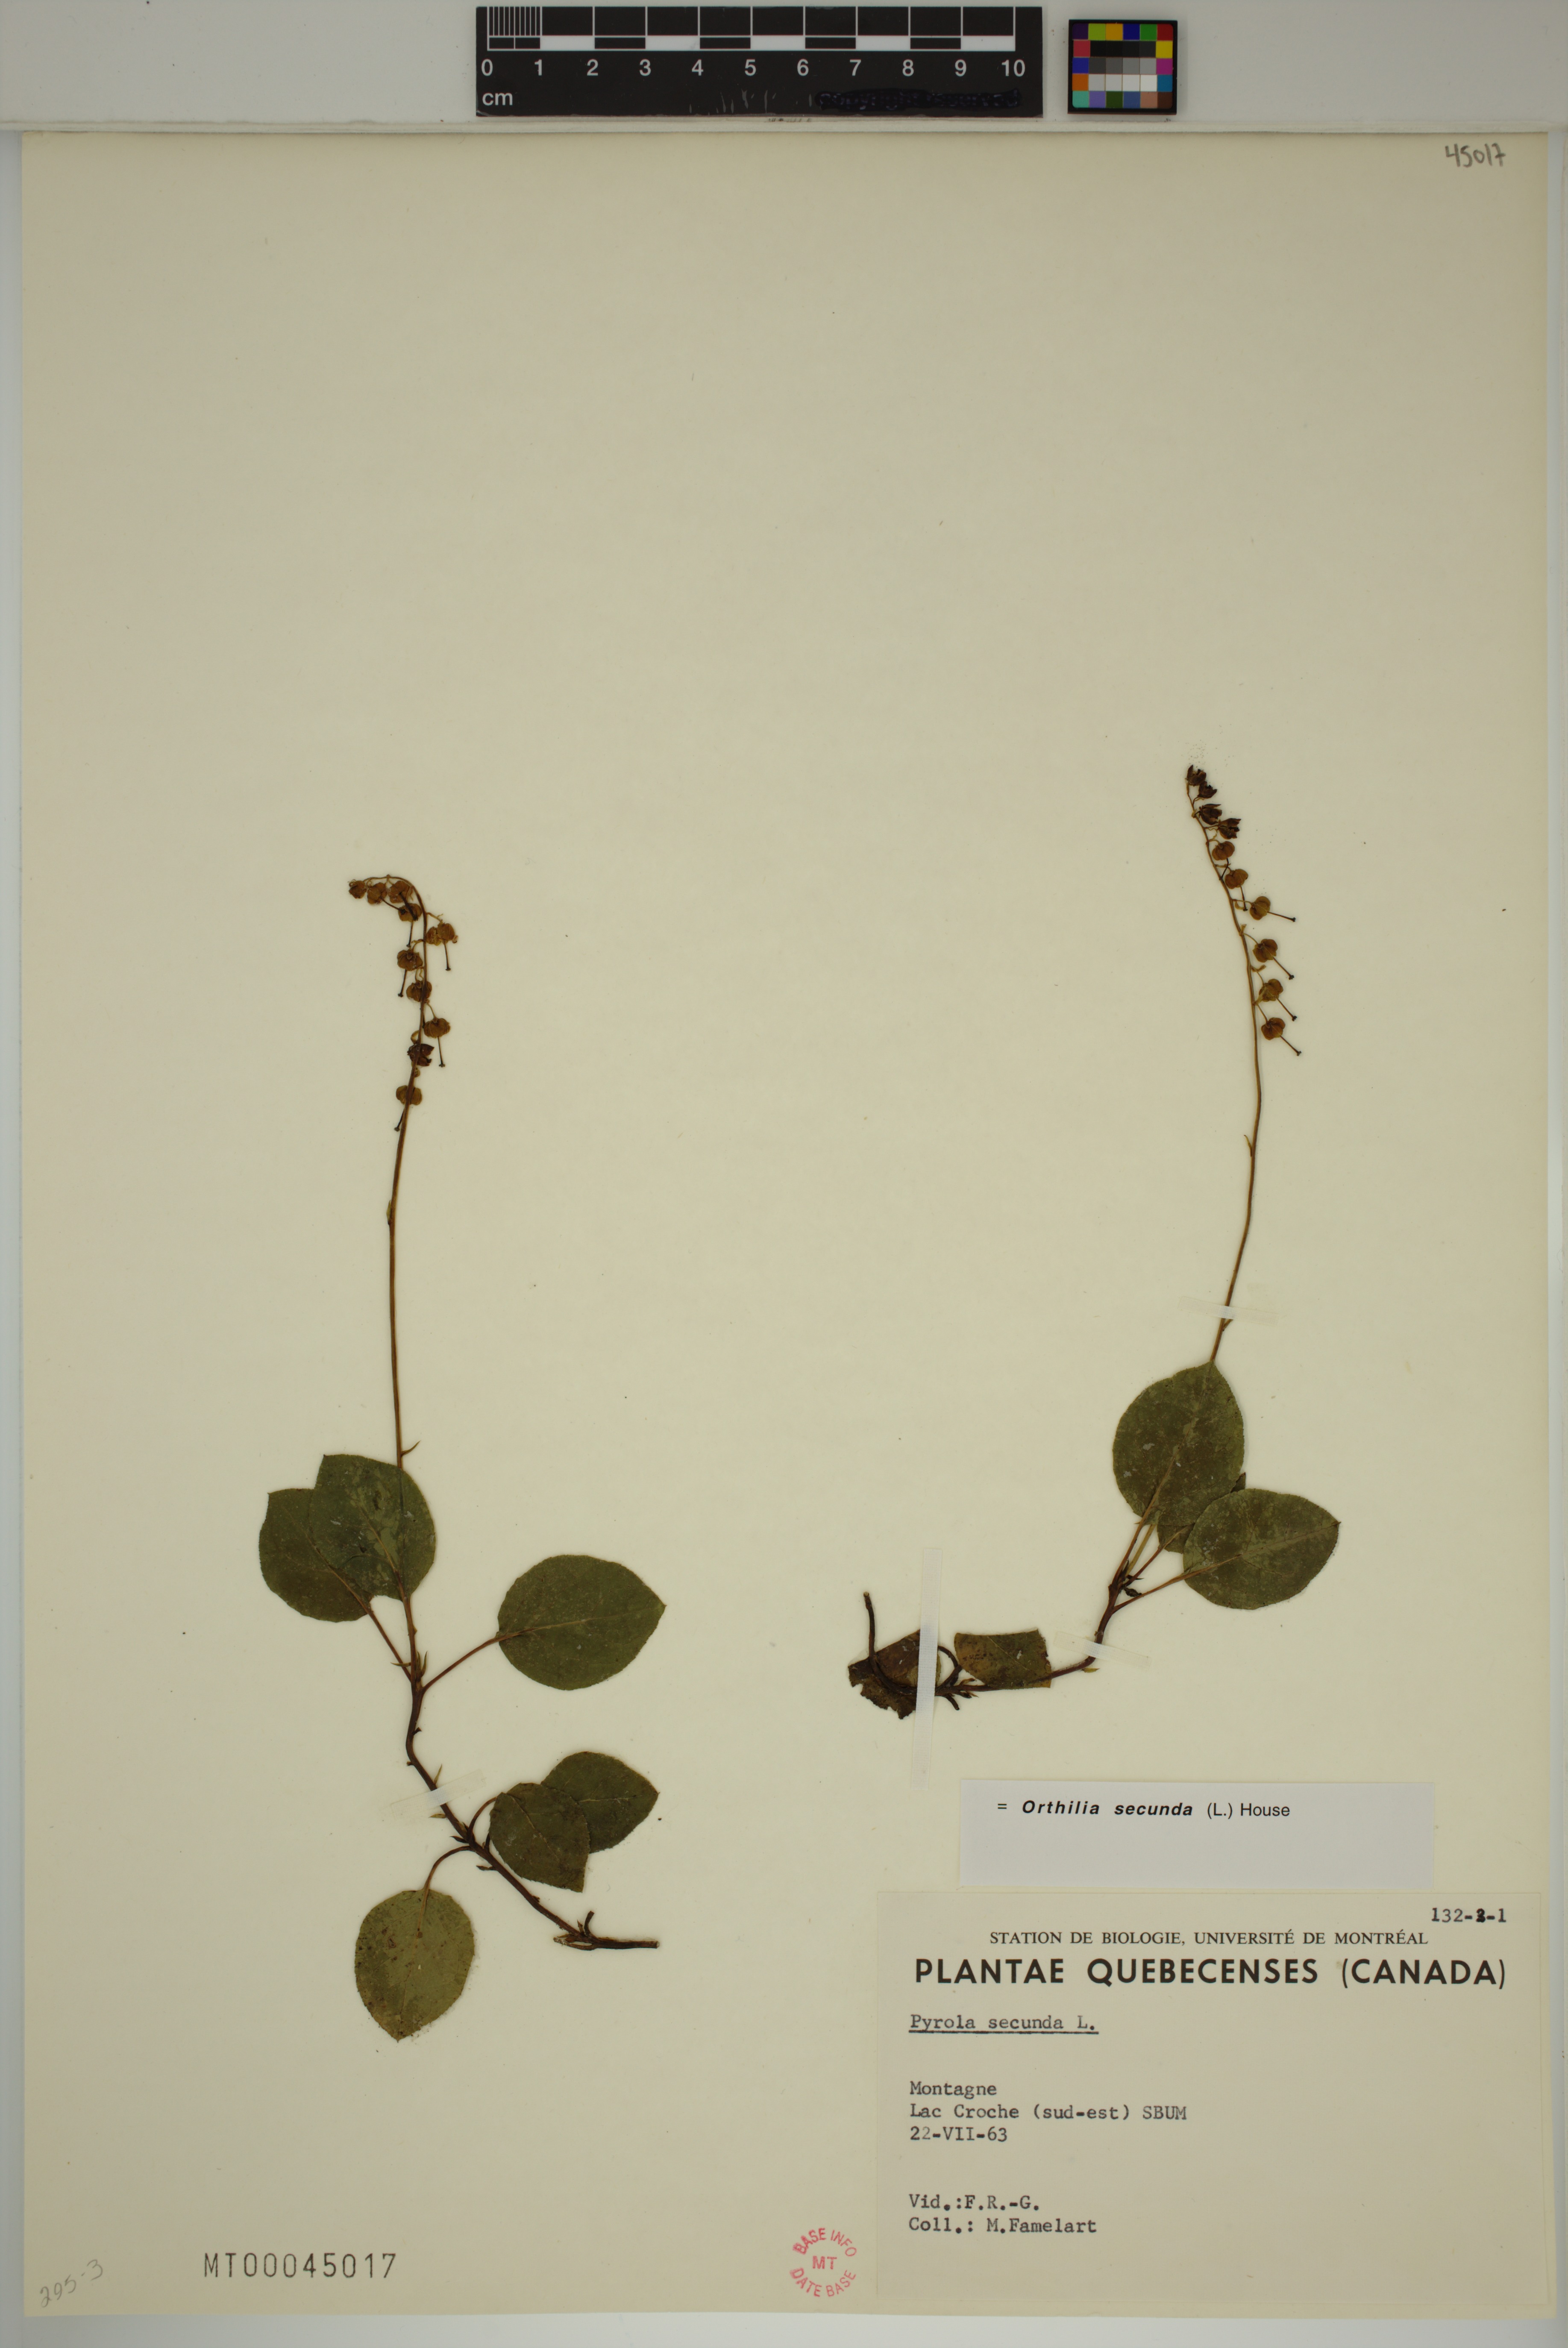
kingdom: Plantae
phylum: Tracheophyta
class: Magnoliopsida
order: Ericales
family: Ericaceae
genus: Orthilia
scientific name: Orthilia secunda
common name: One-sided orthilia
